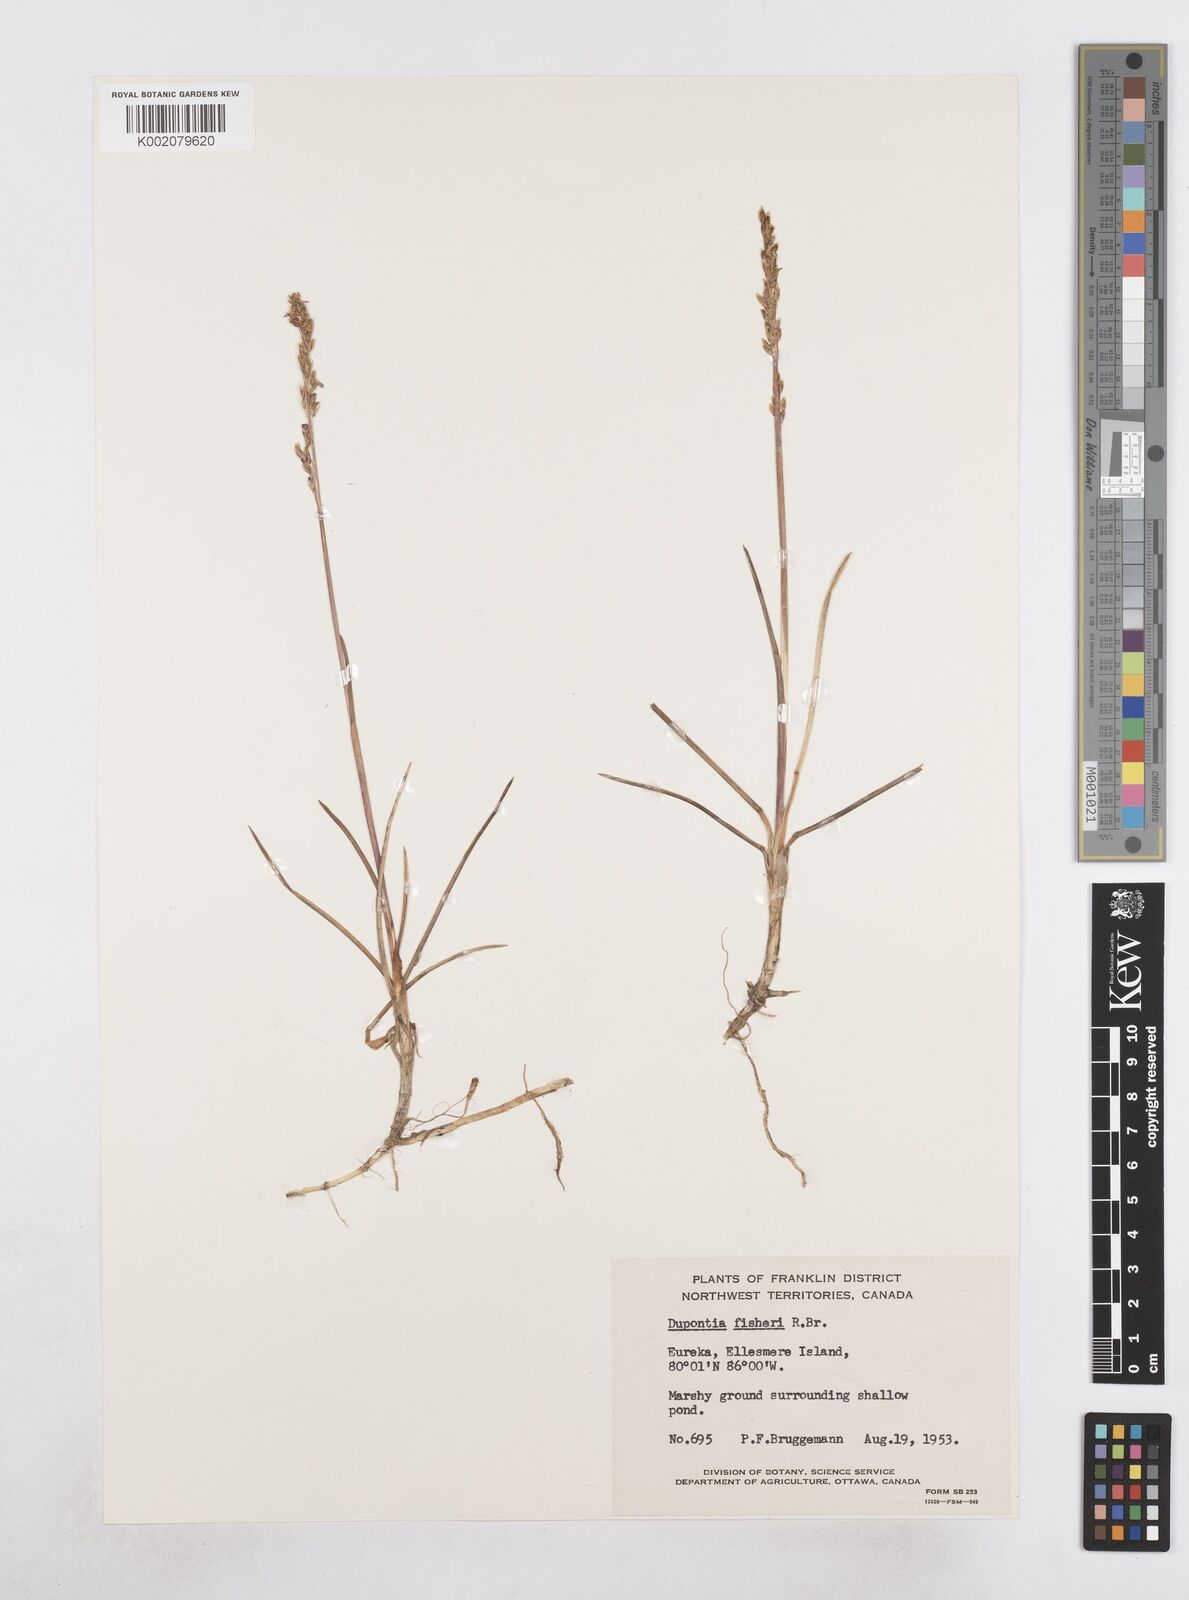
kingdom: Plantae
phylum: Tracheophyta
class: Liliopsida
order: Poales
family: Poaceae
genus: Dupontia
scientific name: Dupontia fisheri
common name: Tundra grass
